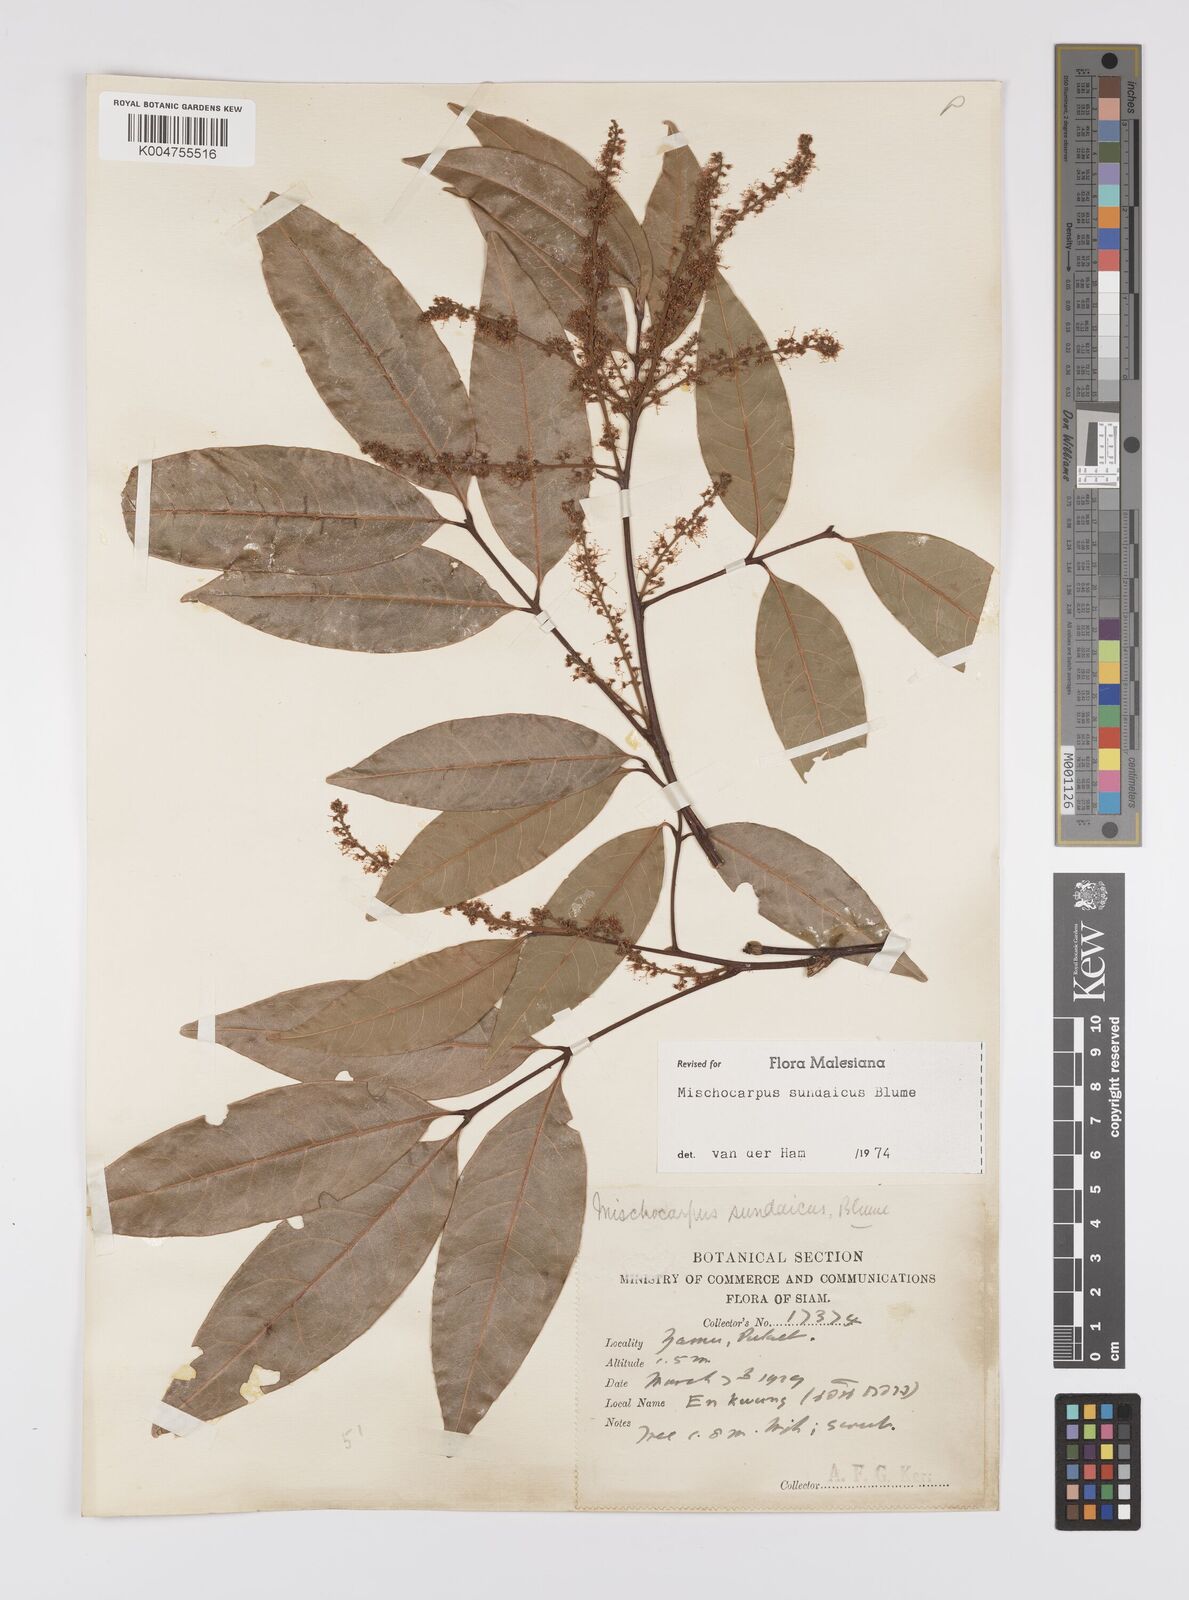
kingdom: Plantae
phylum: Tracheophyta
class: Magnoliopsida
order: Sapindales
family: Sapindaceae
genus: Mischocarpus
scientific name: Mischocarpus sundaicus
